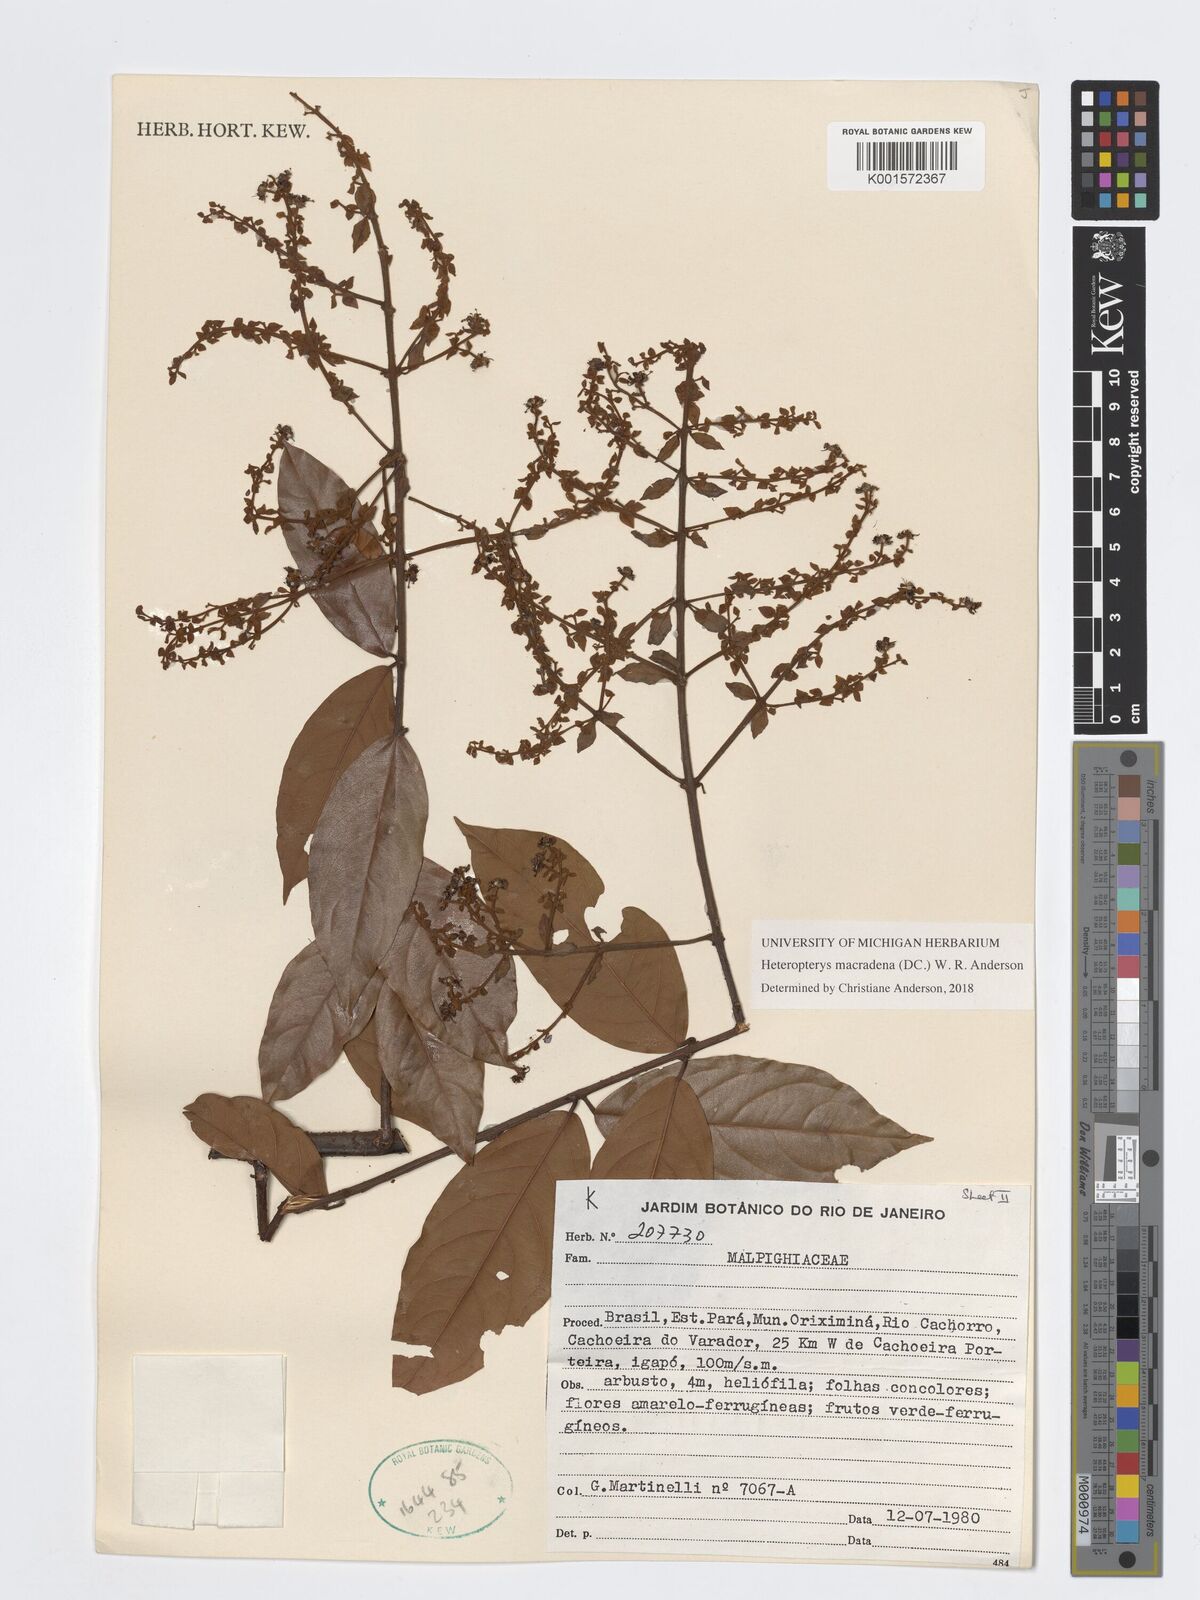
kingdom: Plantae
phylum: Tracheophyta
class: Magnoliopsida
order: Malpighiales
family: Malpighiaceae
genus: Heteropterys
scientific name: Heteropterys macradena
